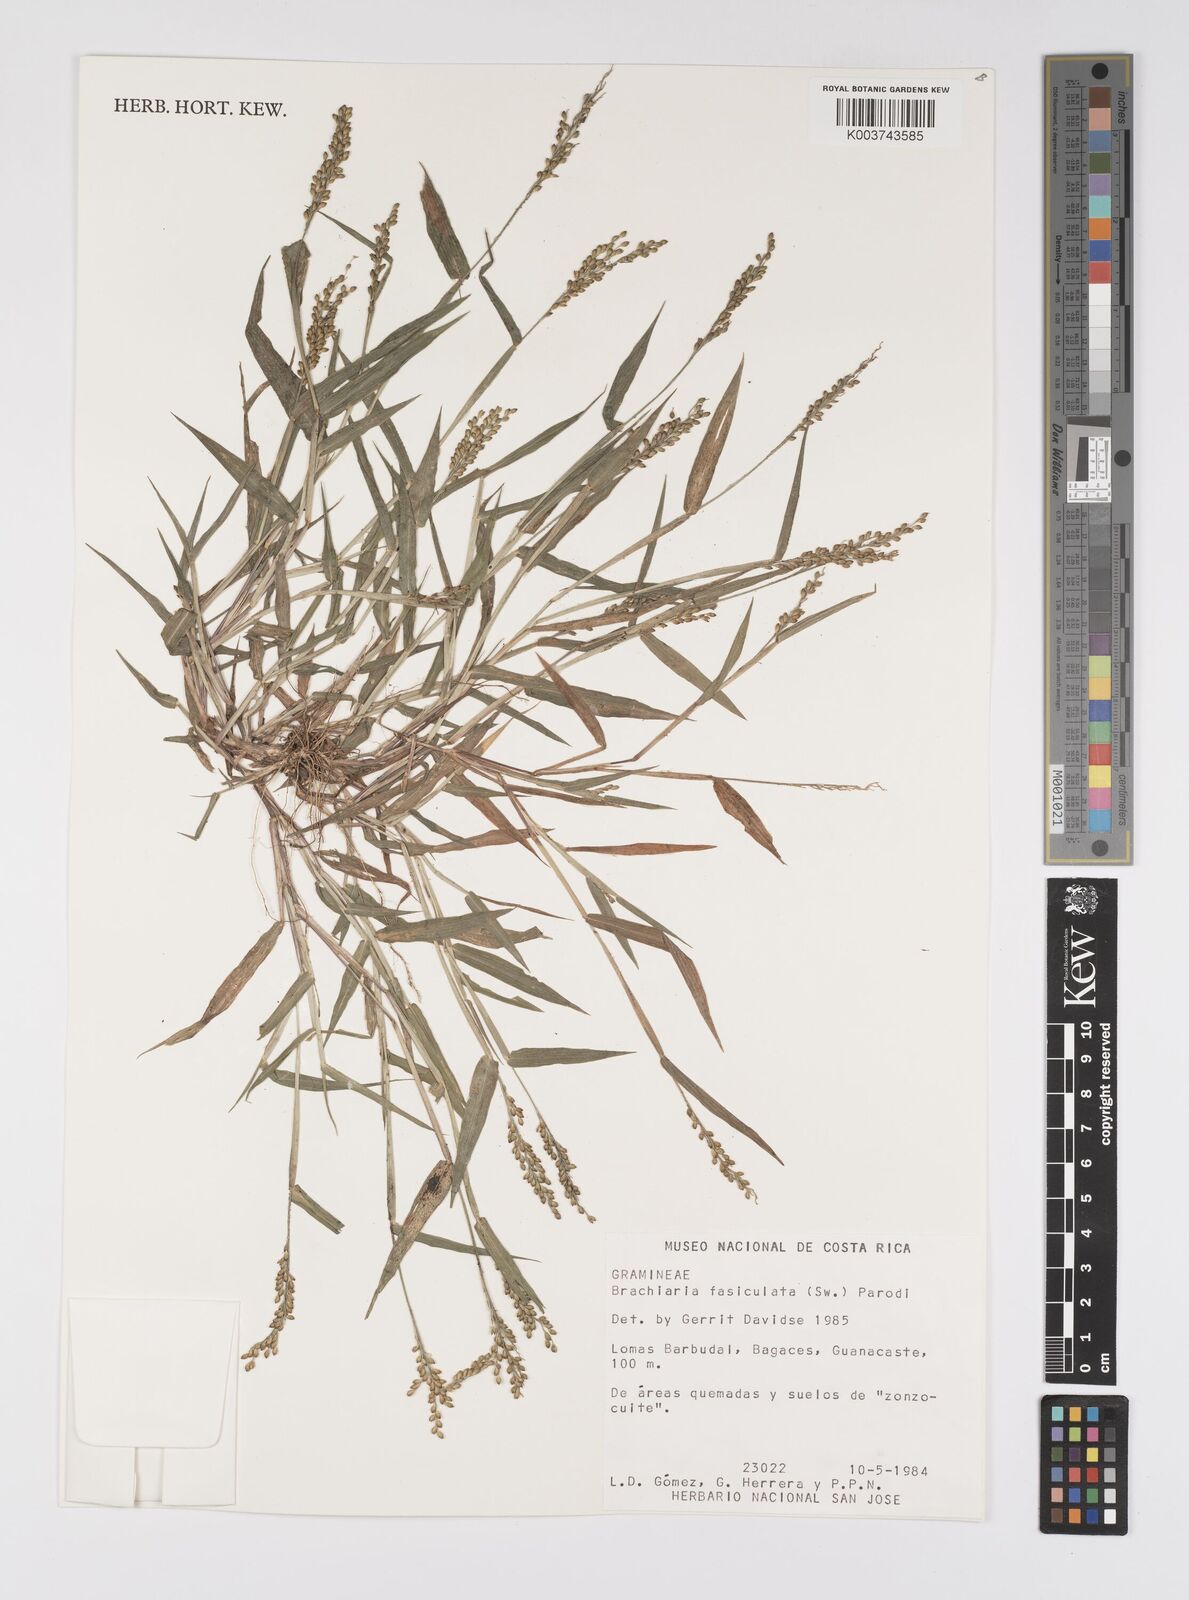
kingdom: Plantae
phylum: Tracheophyta
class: Liliopsida
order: Poales
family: Poaceae
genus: Urochloa
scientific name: Urochloa fusca
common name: Browntop signal grass
